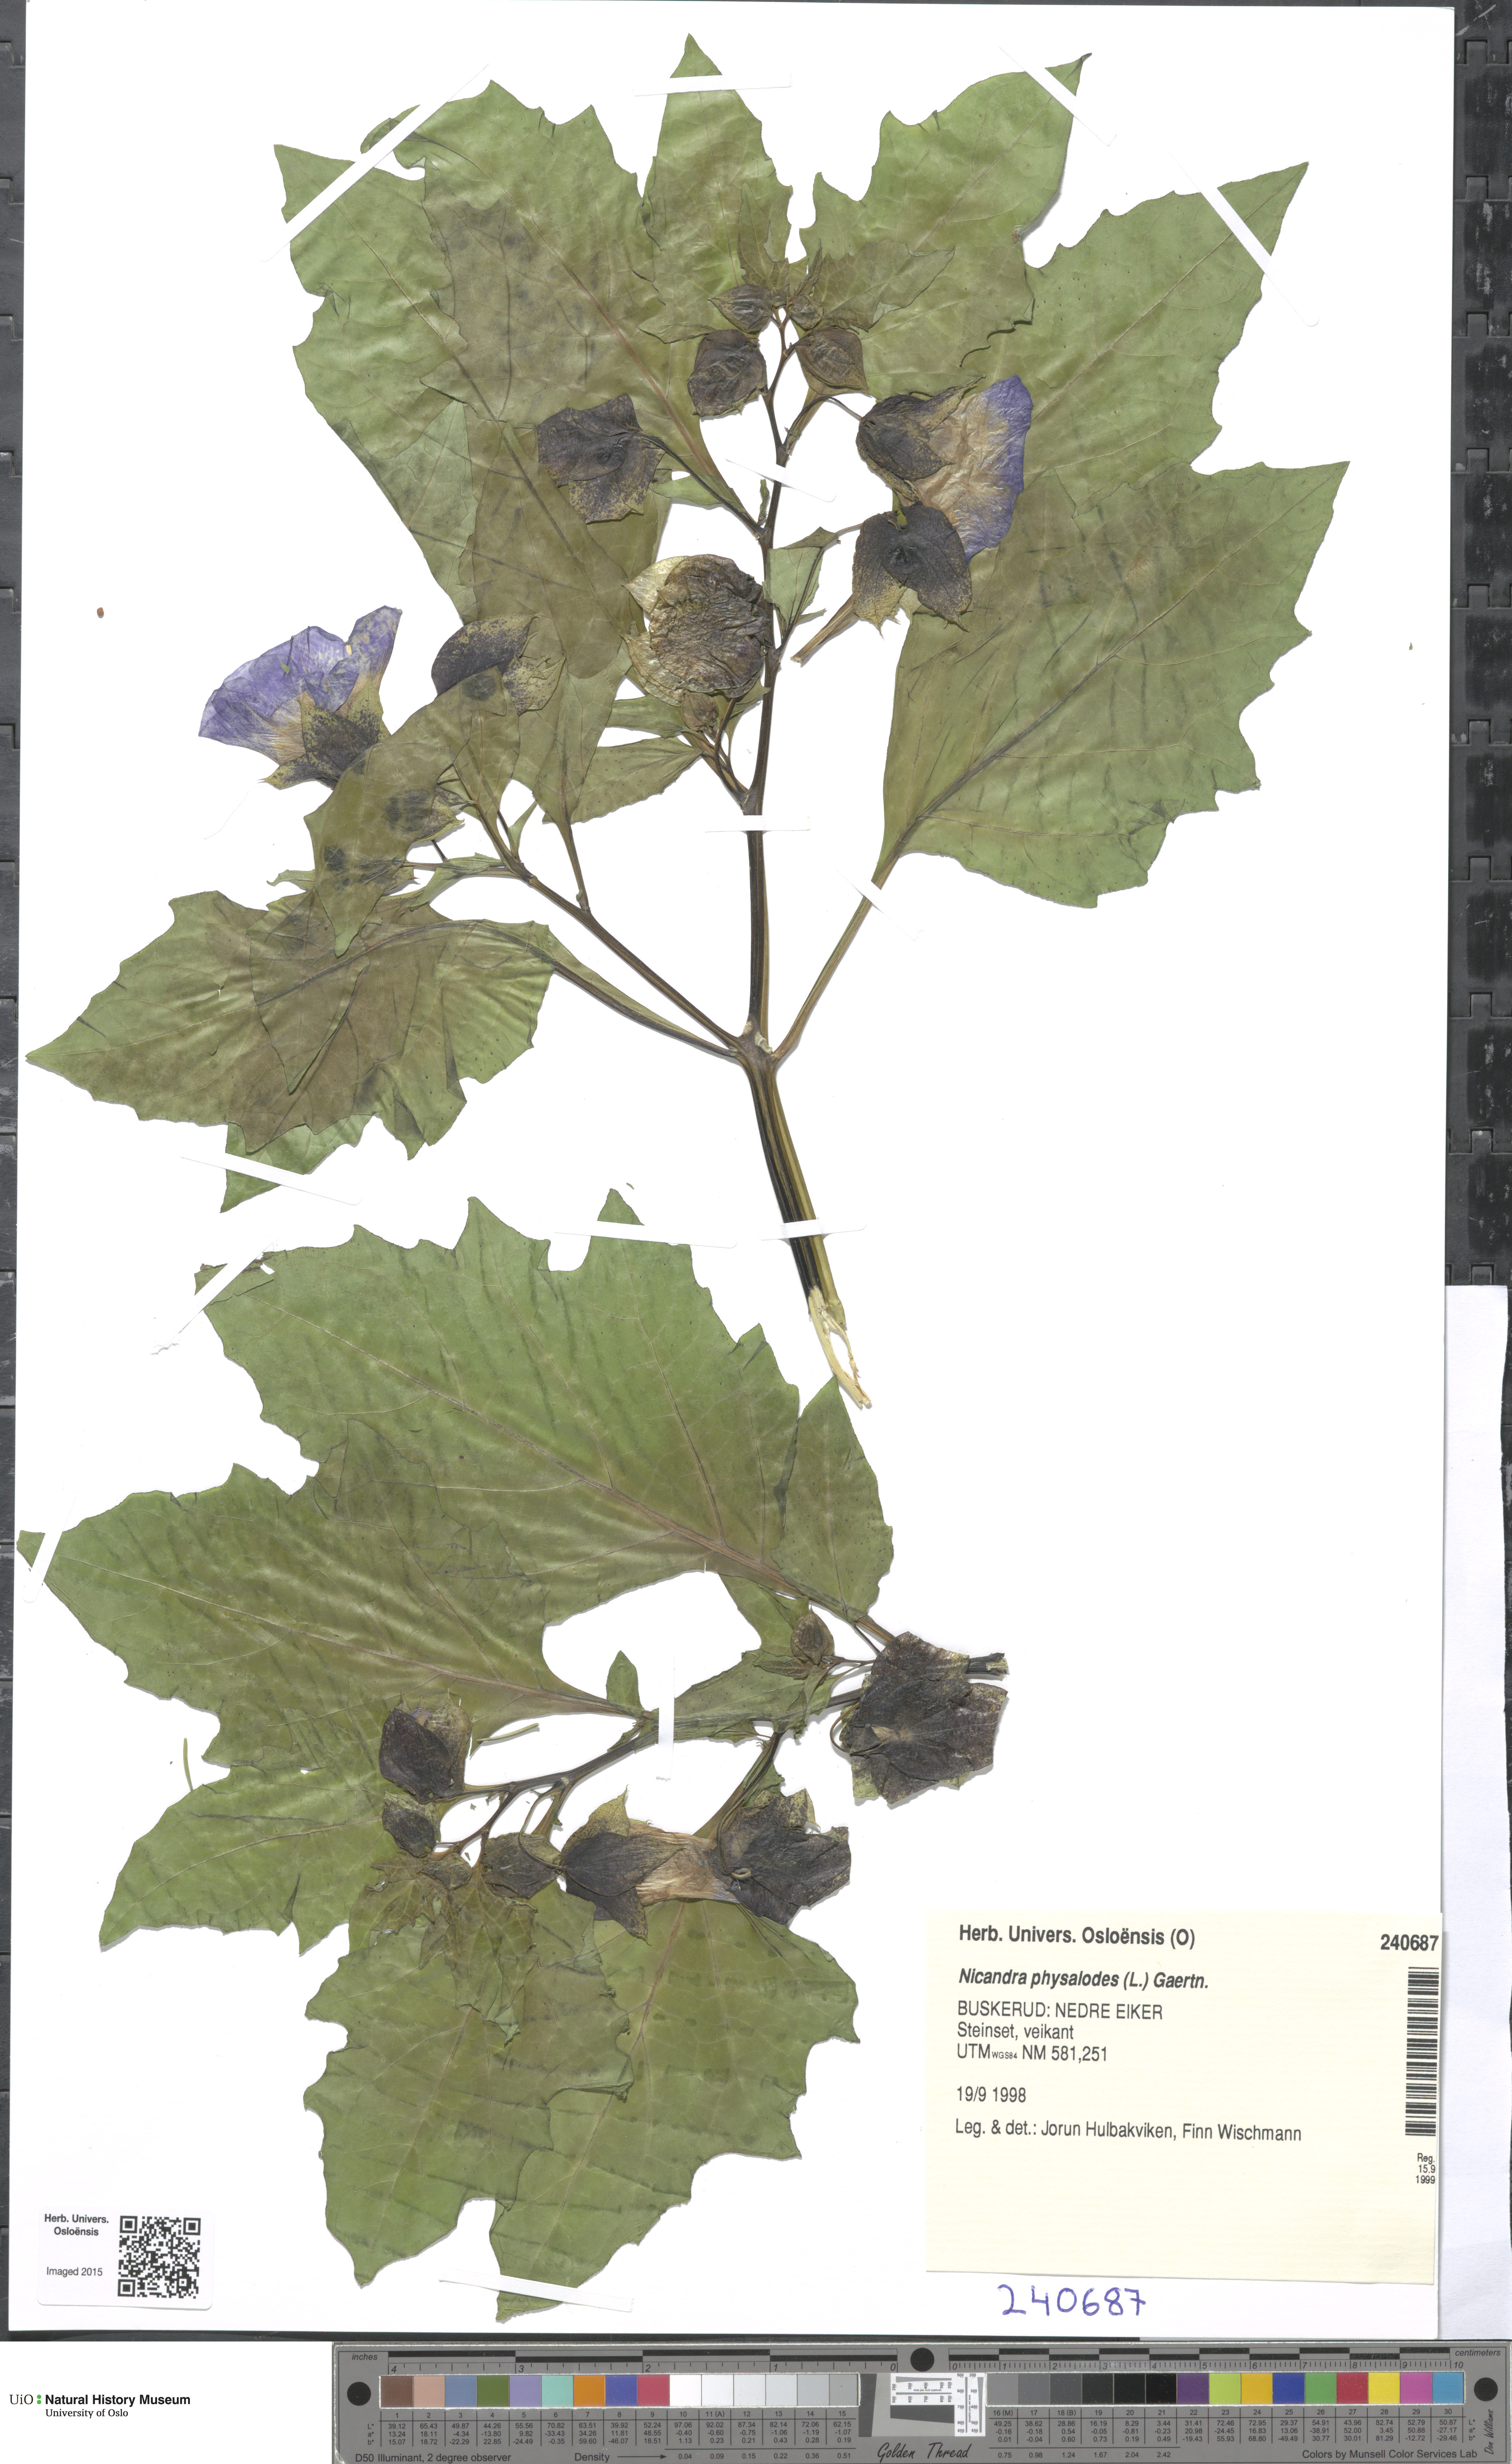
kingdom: Plantae
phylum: Tracheophyta
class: Magnoliopsida
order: Solanales
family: Solanaceae
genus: Nicandra
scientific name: Nicandra physalodes
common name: Apple-of-peru
